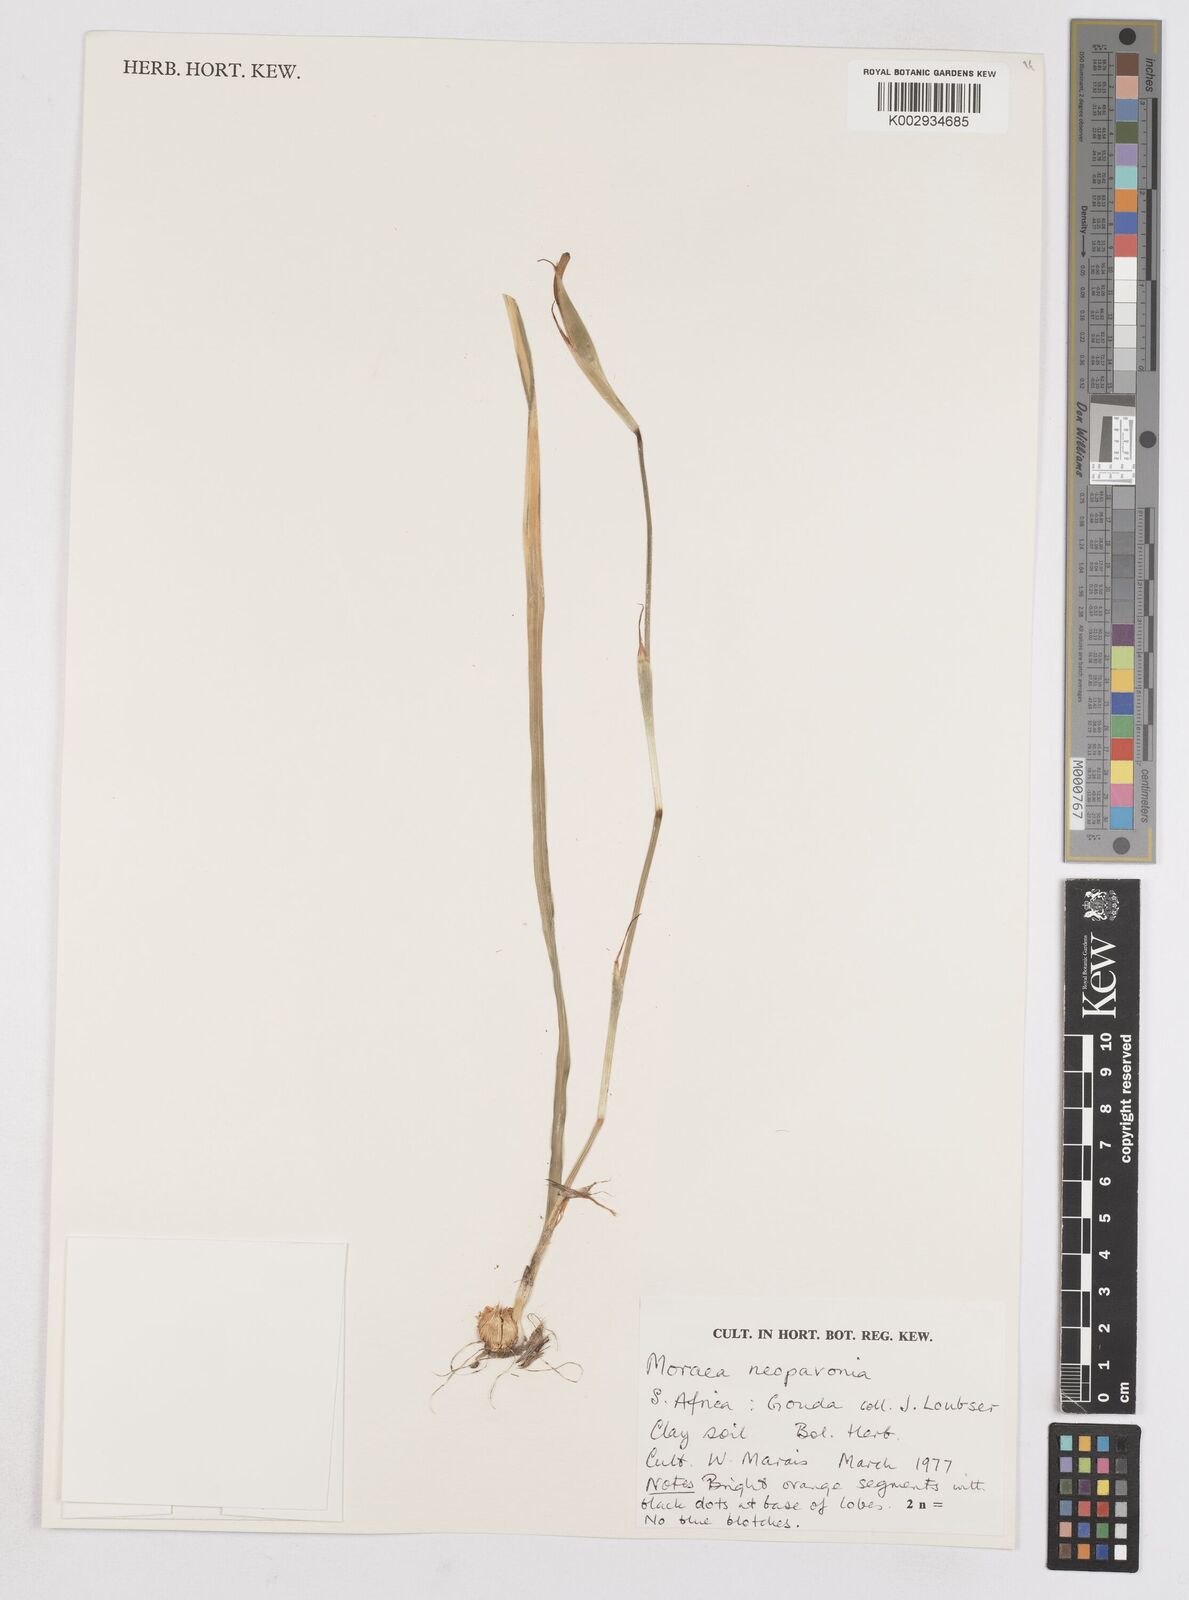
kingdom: Plantae
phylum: Tracheophyta
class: Liliopsida
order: Asparagales
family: Iridaceae
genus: Moraea
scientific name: Moraea tulbaghensis
